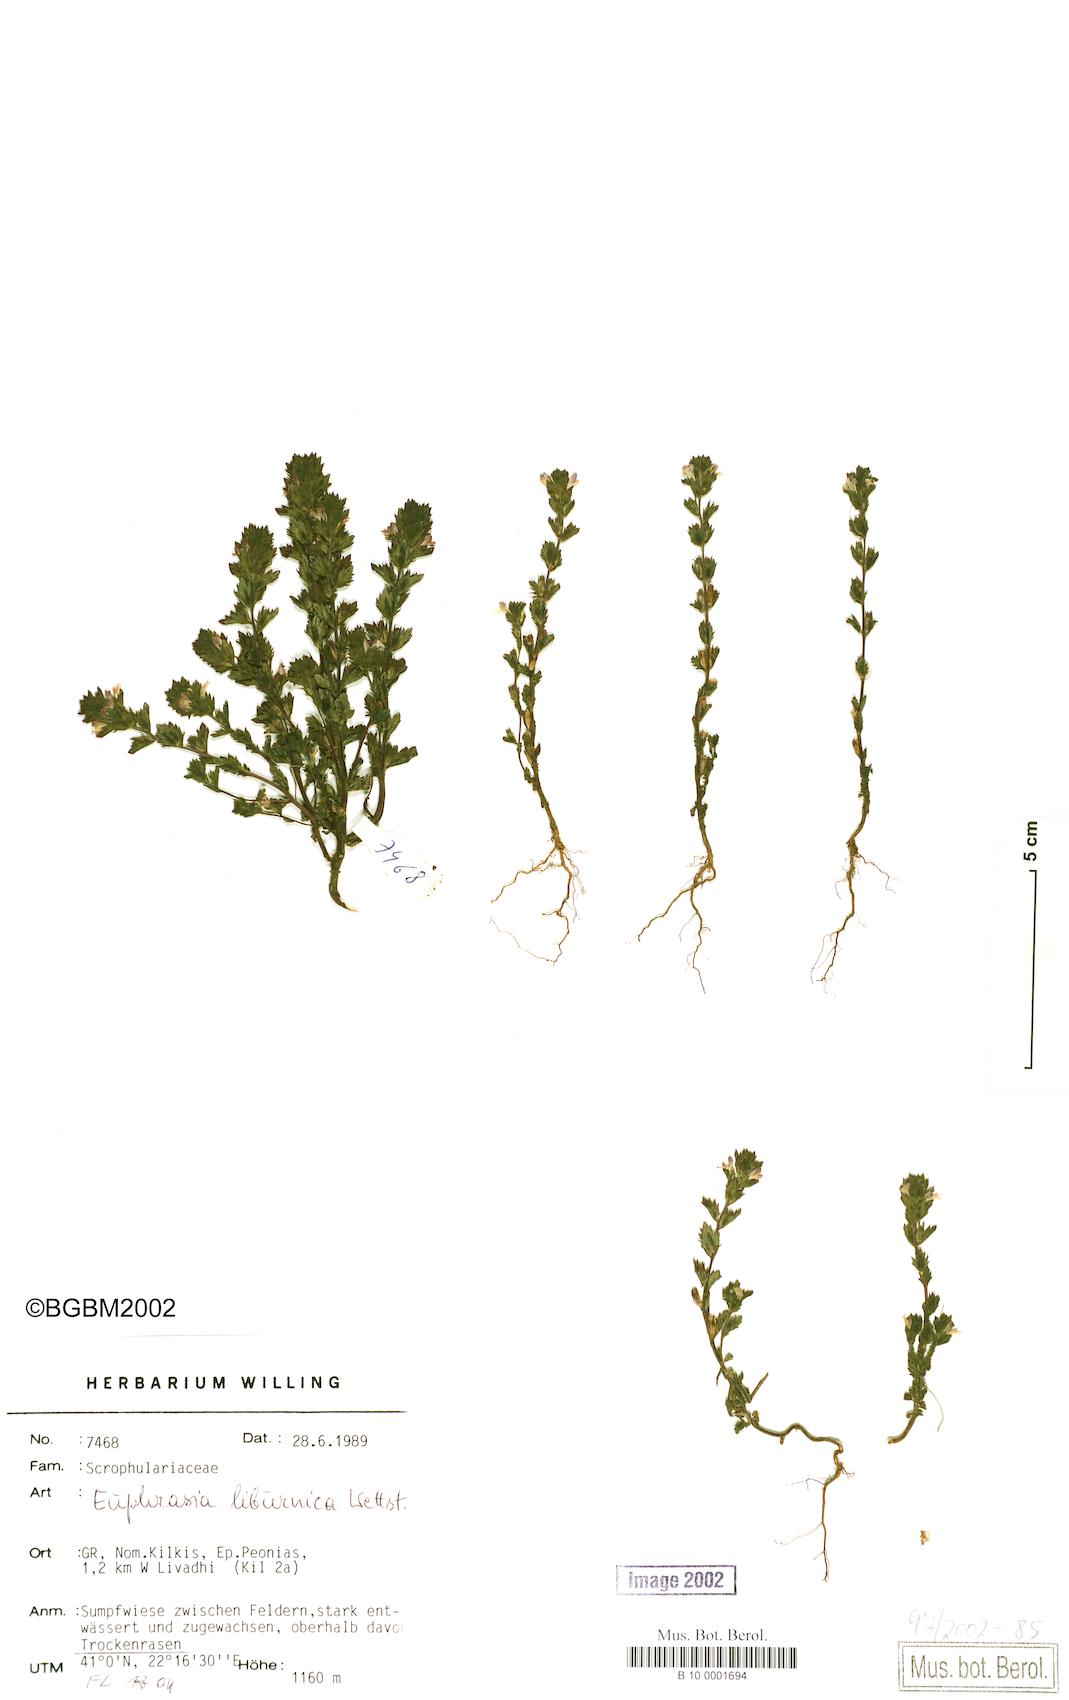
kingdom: Plantae
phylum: Tracheophyta
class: Magnoliopsida
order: Lamiales
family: Orobanchaceae
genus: Euphrasia
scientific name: Euphrasia liburnica
